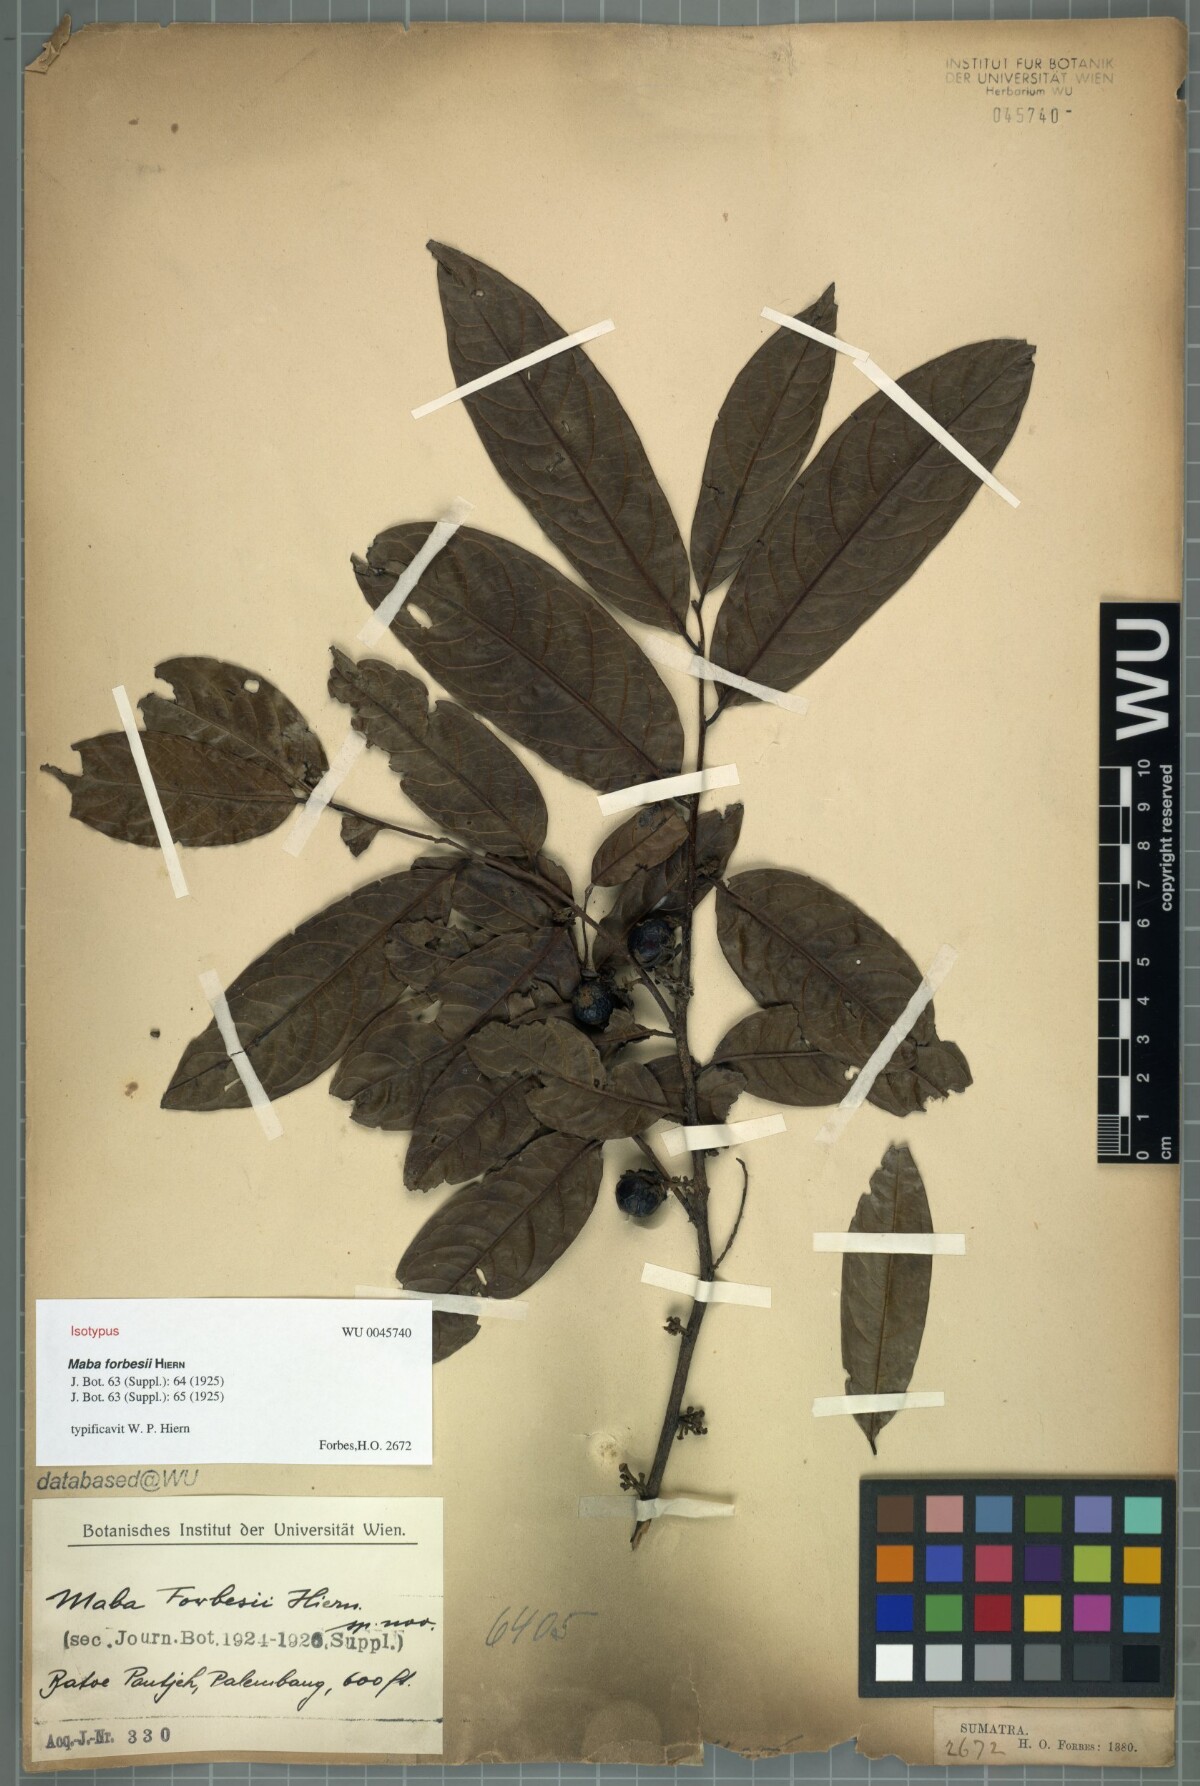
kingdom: Plantae
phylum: Tracheophyta
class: Magnoliopsida
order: Ericales
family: Ebenaceae
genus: Diospyros
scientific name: Diospyros frutescens
